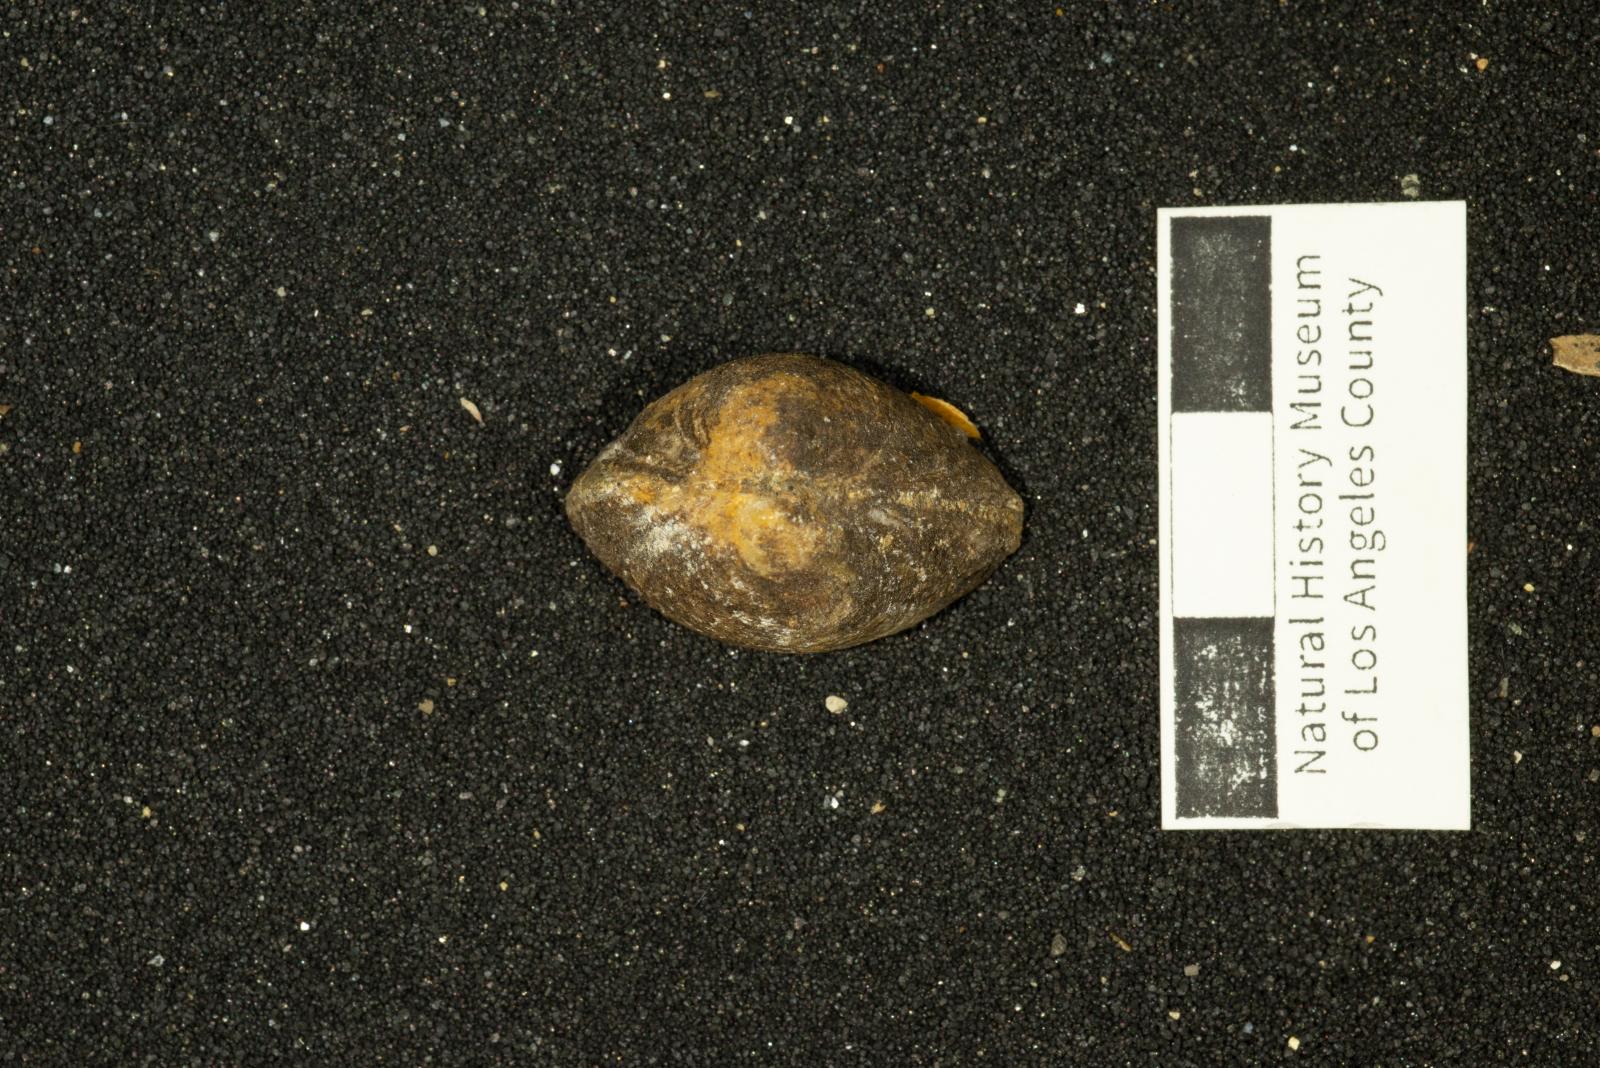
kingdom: Animalia
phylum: Mollusca
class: Bivalvia
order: Arcida
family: Glycymerididae
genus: Glycymeris
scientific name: Glycymeris Pectunculus pacificus
